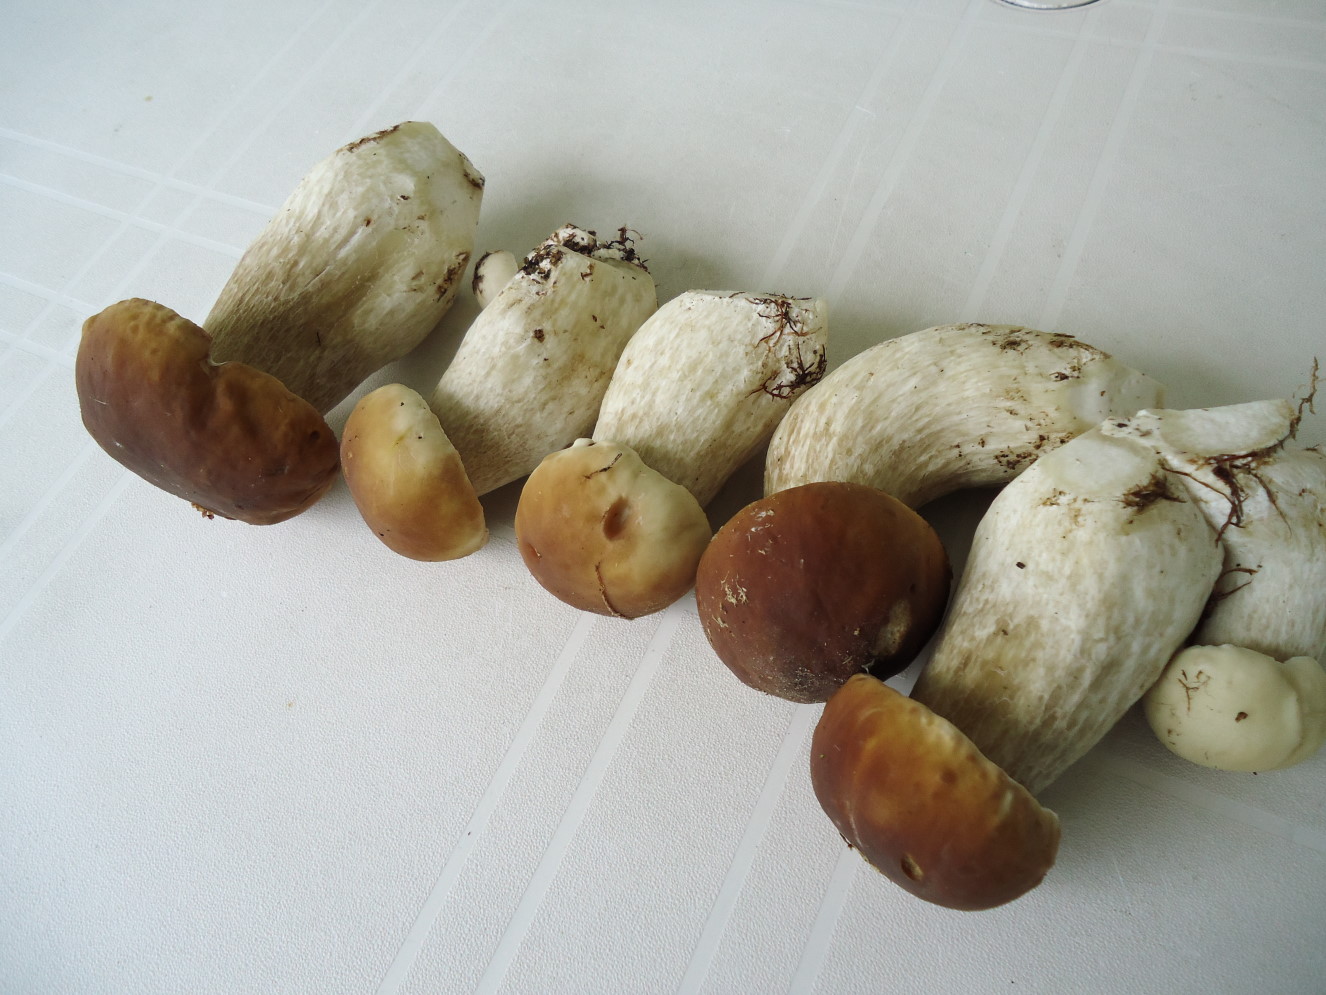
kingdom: Fungi
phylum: Basidiomycota
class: Agaricomycetes
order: Boletales
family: Boletaceae
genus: Boletus
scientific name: Boletus edulis
